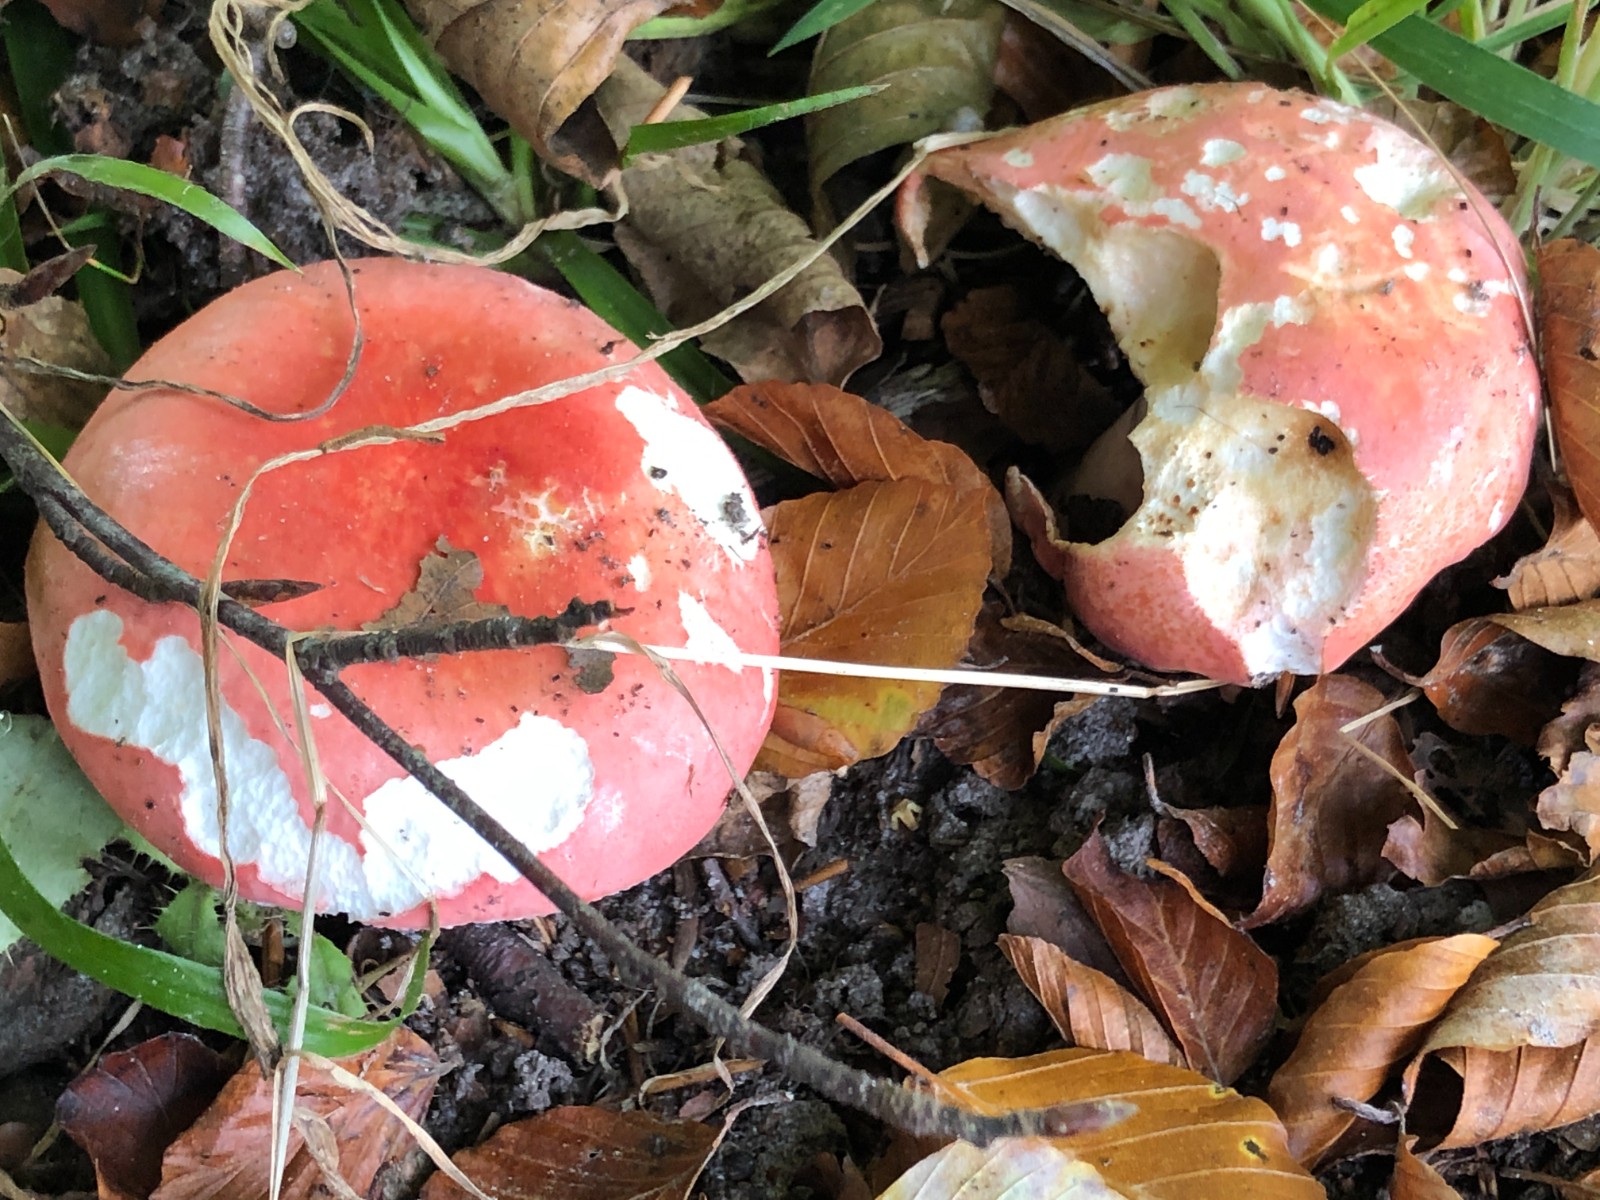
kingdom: Fungi
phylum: Basidiomycota
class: Agaricomycetes
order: Russulales
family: Russulaceae
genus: Russula
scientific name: Russula rosea
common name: fastkødet skørhat
